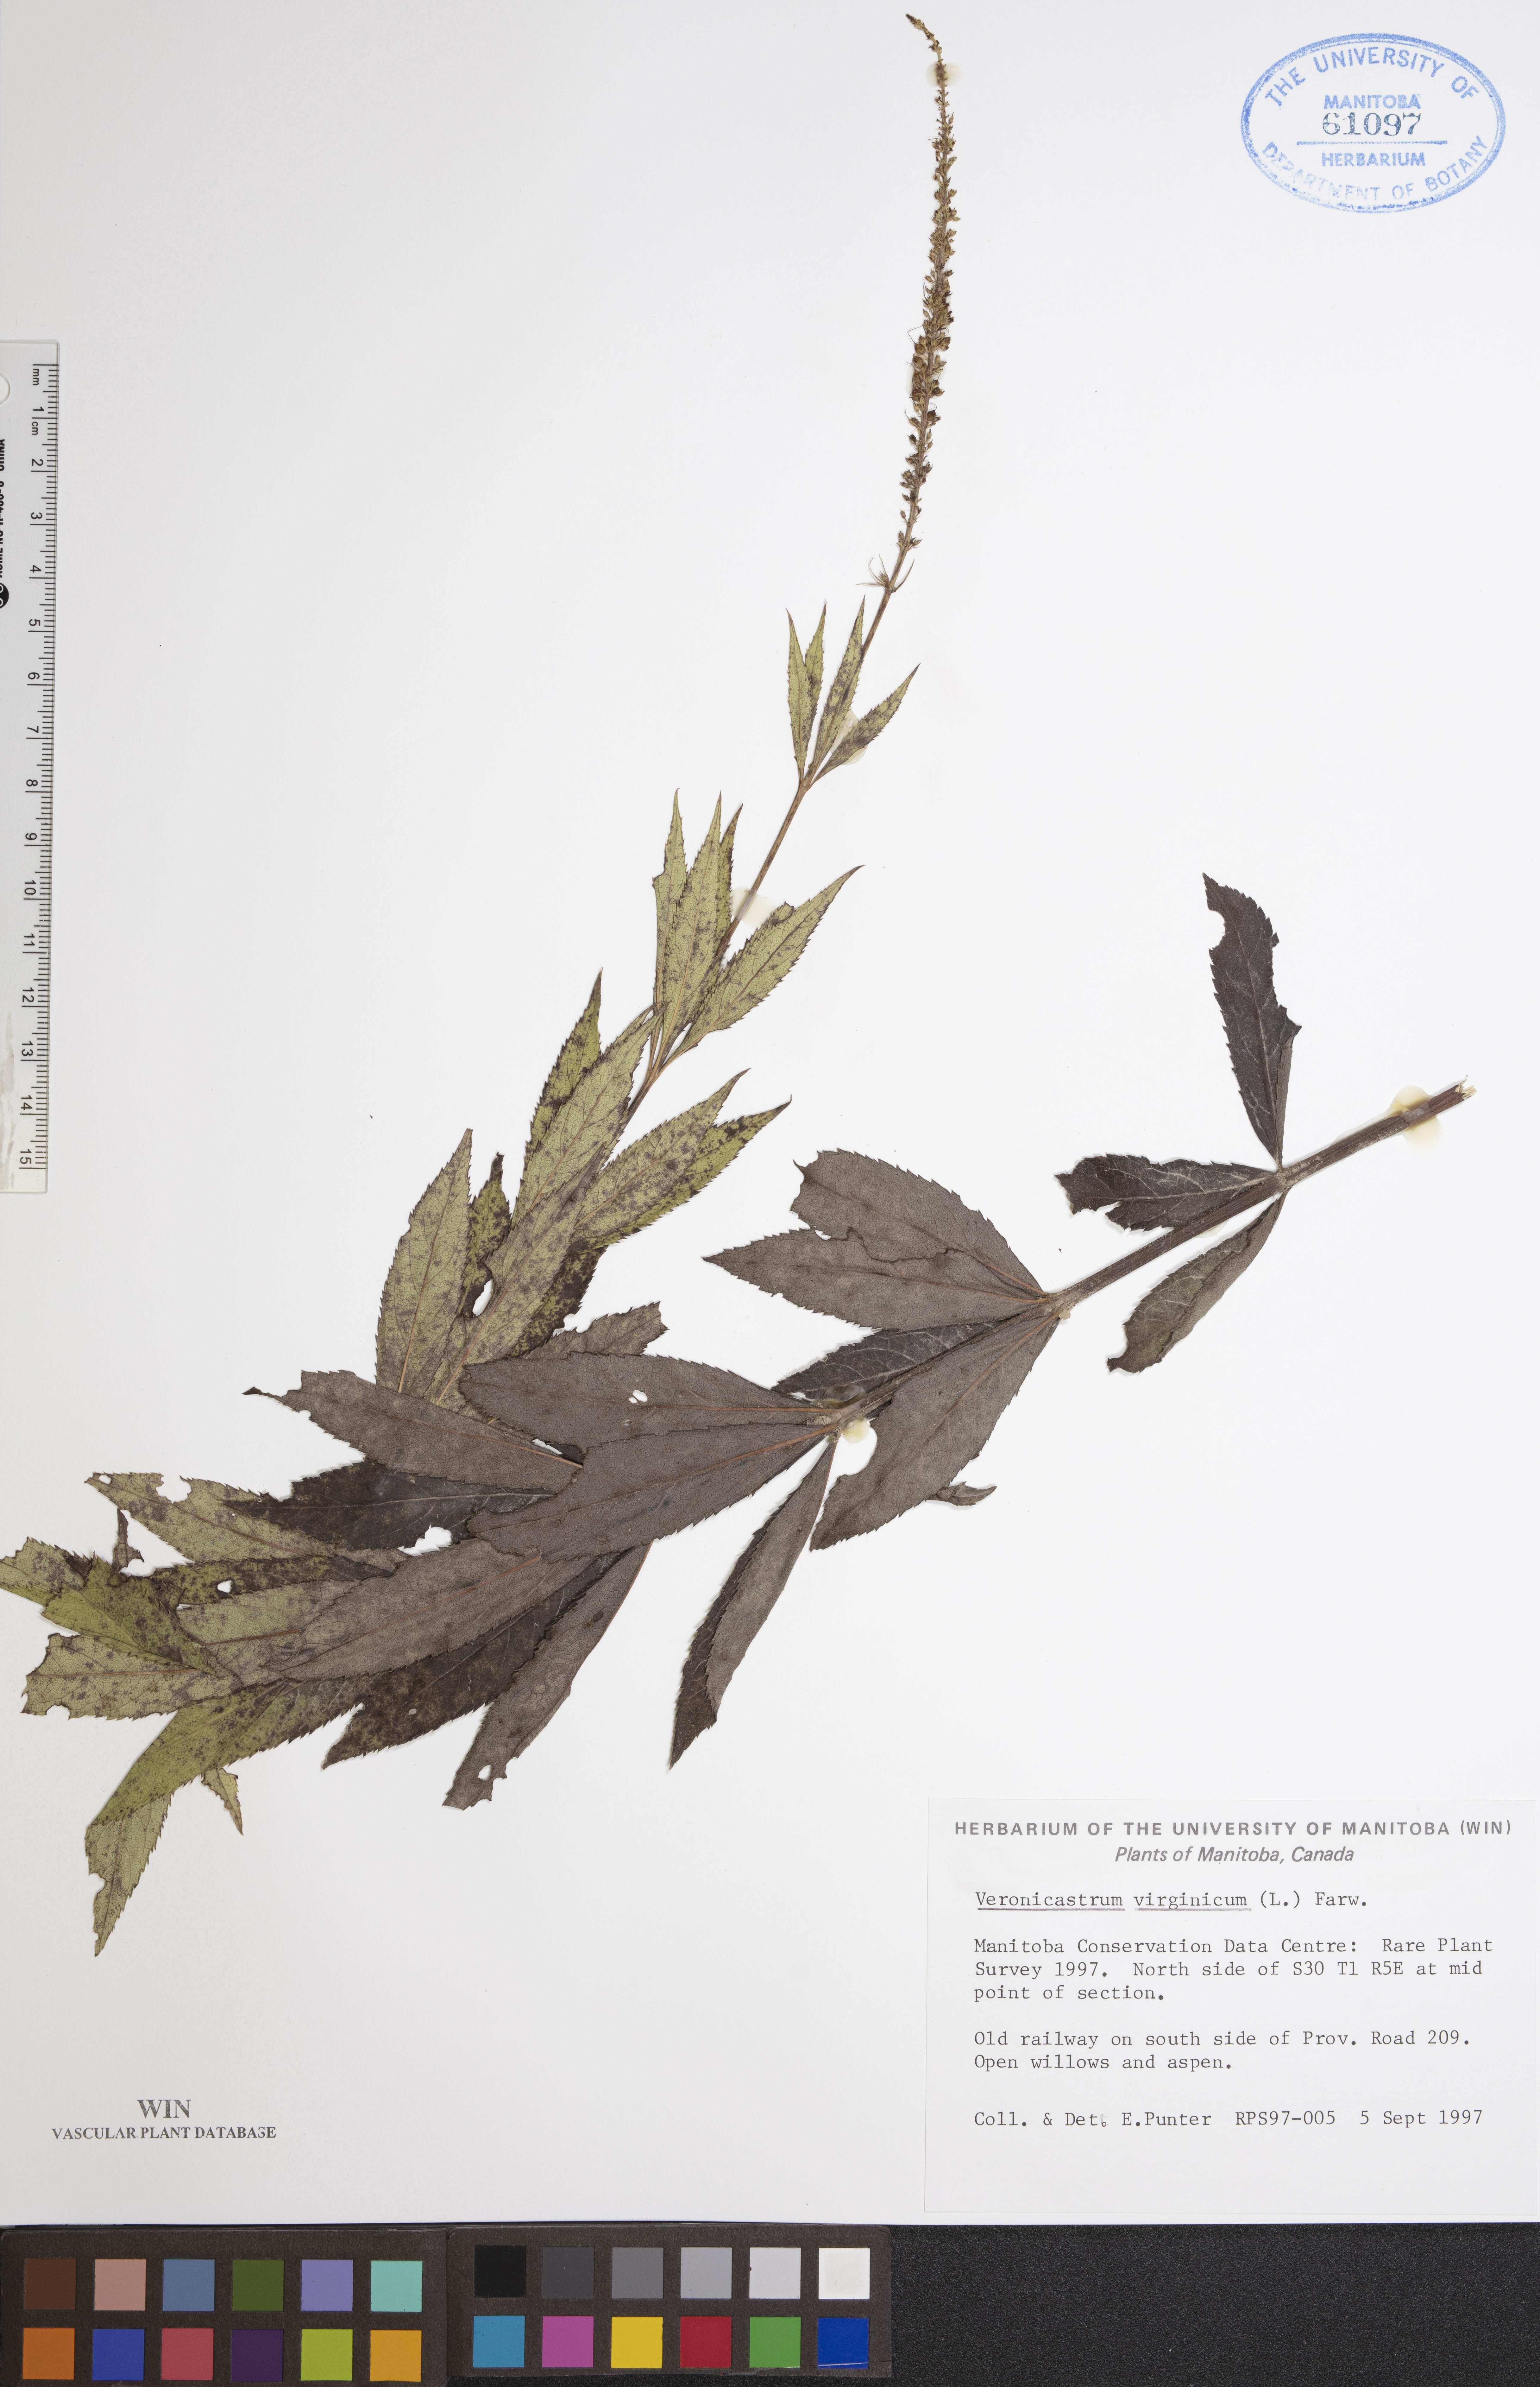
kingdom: Plantae
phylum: Tracheophyta
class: Magnoliopsida
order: Lamiales
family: Plantaginaceae
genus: Veronicastrum
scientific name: Veronicastrum virginicum
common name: Blackroot
